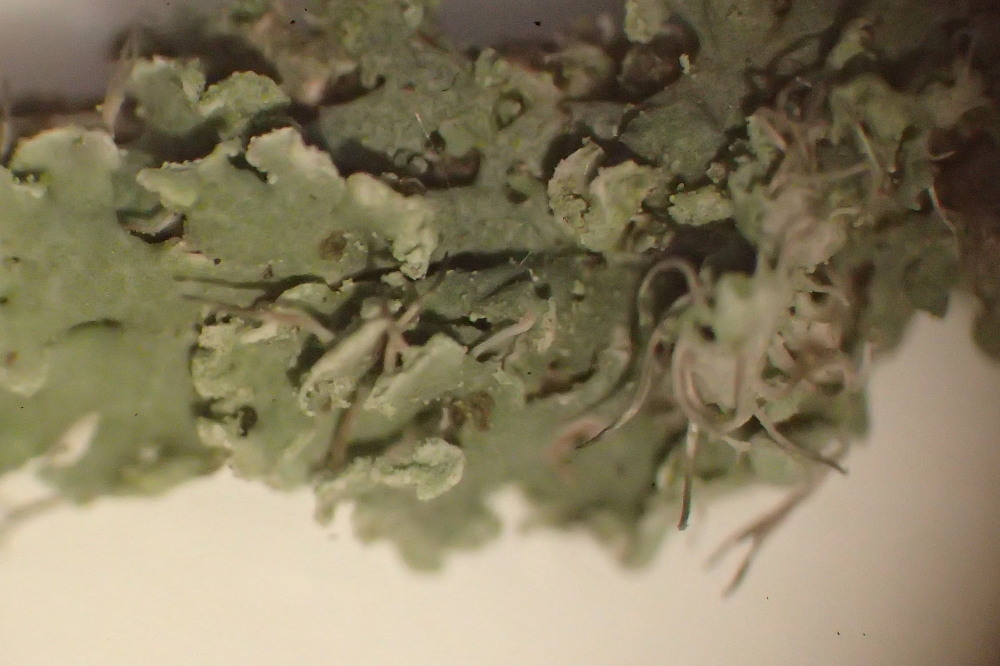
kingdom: Fungi
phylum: Ascomycota
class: Lecanoromycetes
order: Caliciales
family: Physciaceae
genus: Physcia
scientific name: Physcia tenella
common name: spæd rosetlav
